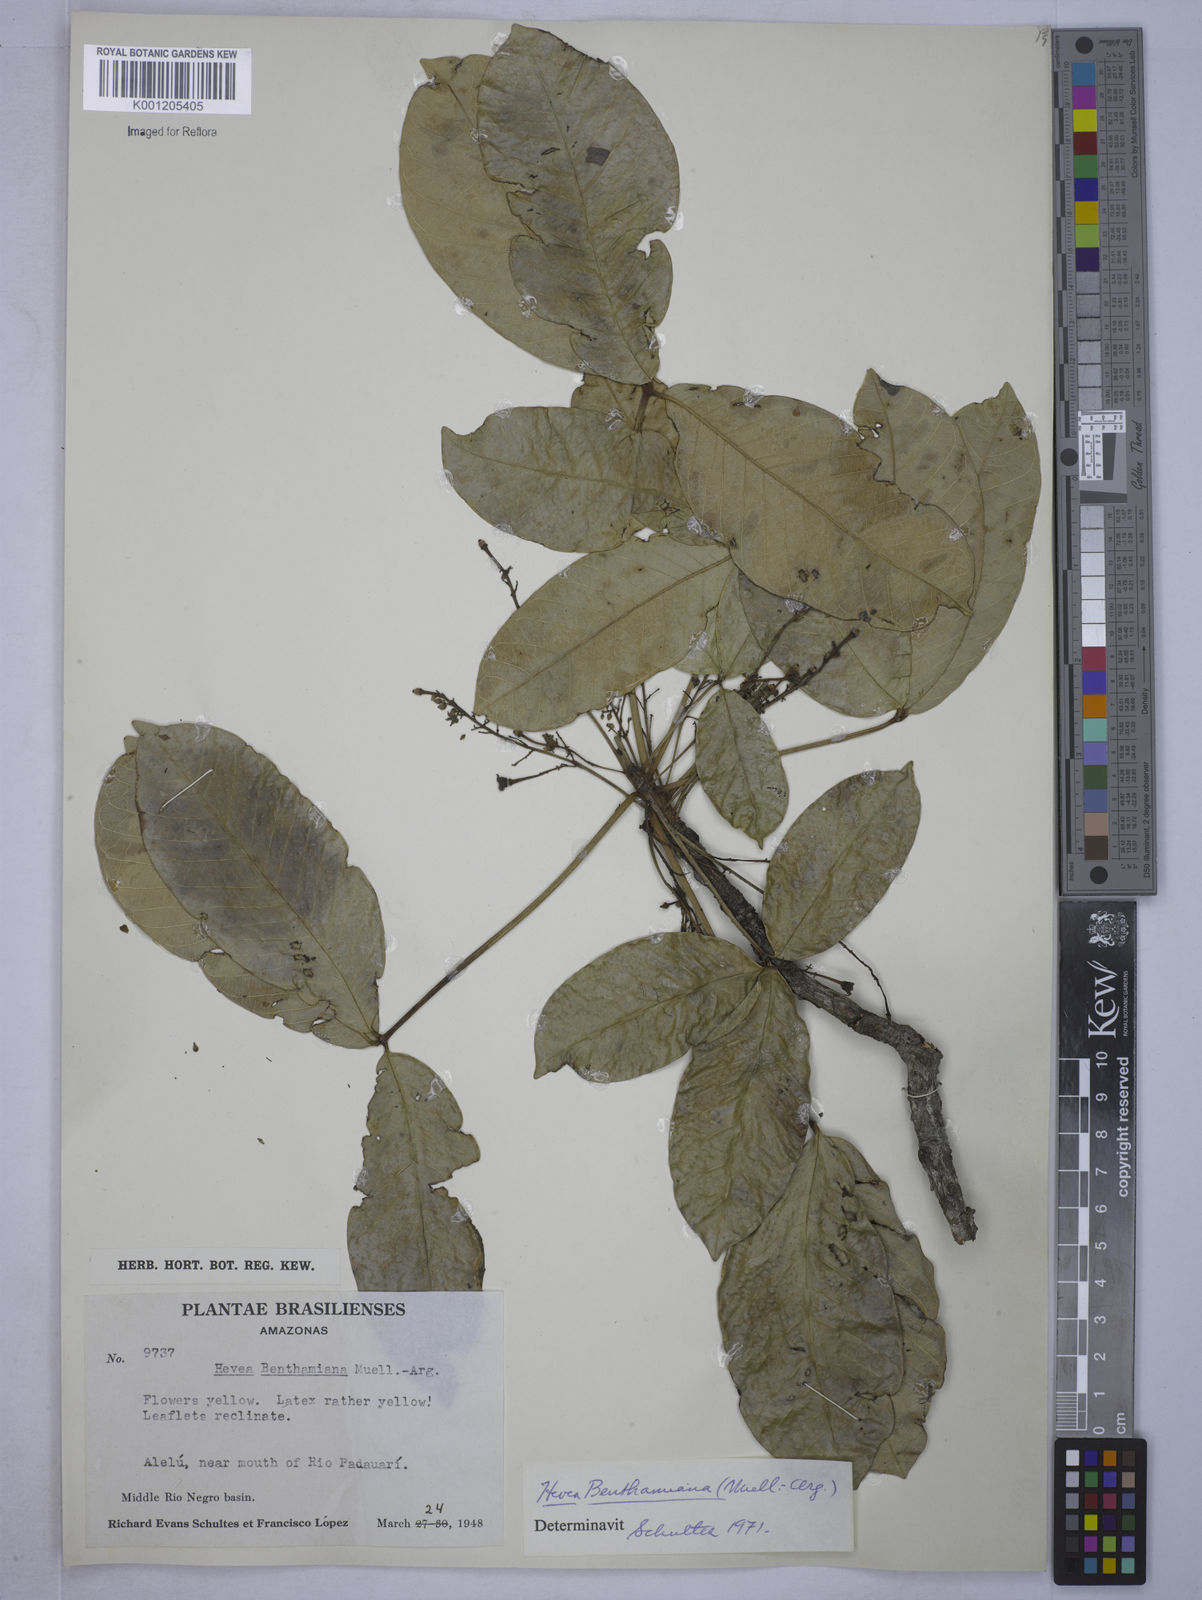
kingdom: Plantae
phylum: Tracheophyta
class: Magnoliopsida
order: Malpighiales
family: Euphorbiaceae
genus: Hevea
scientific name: Hevea
